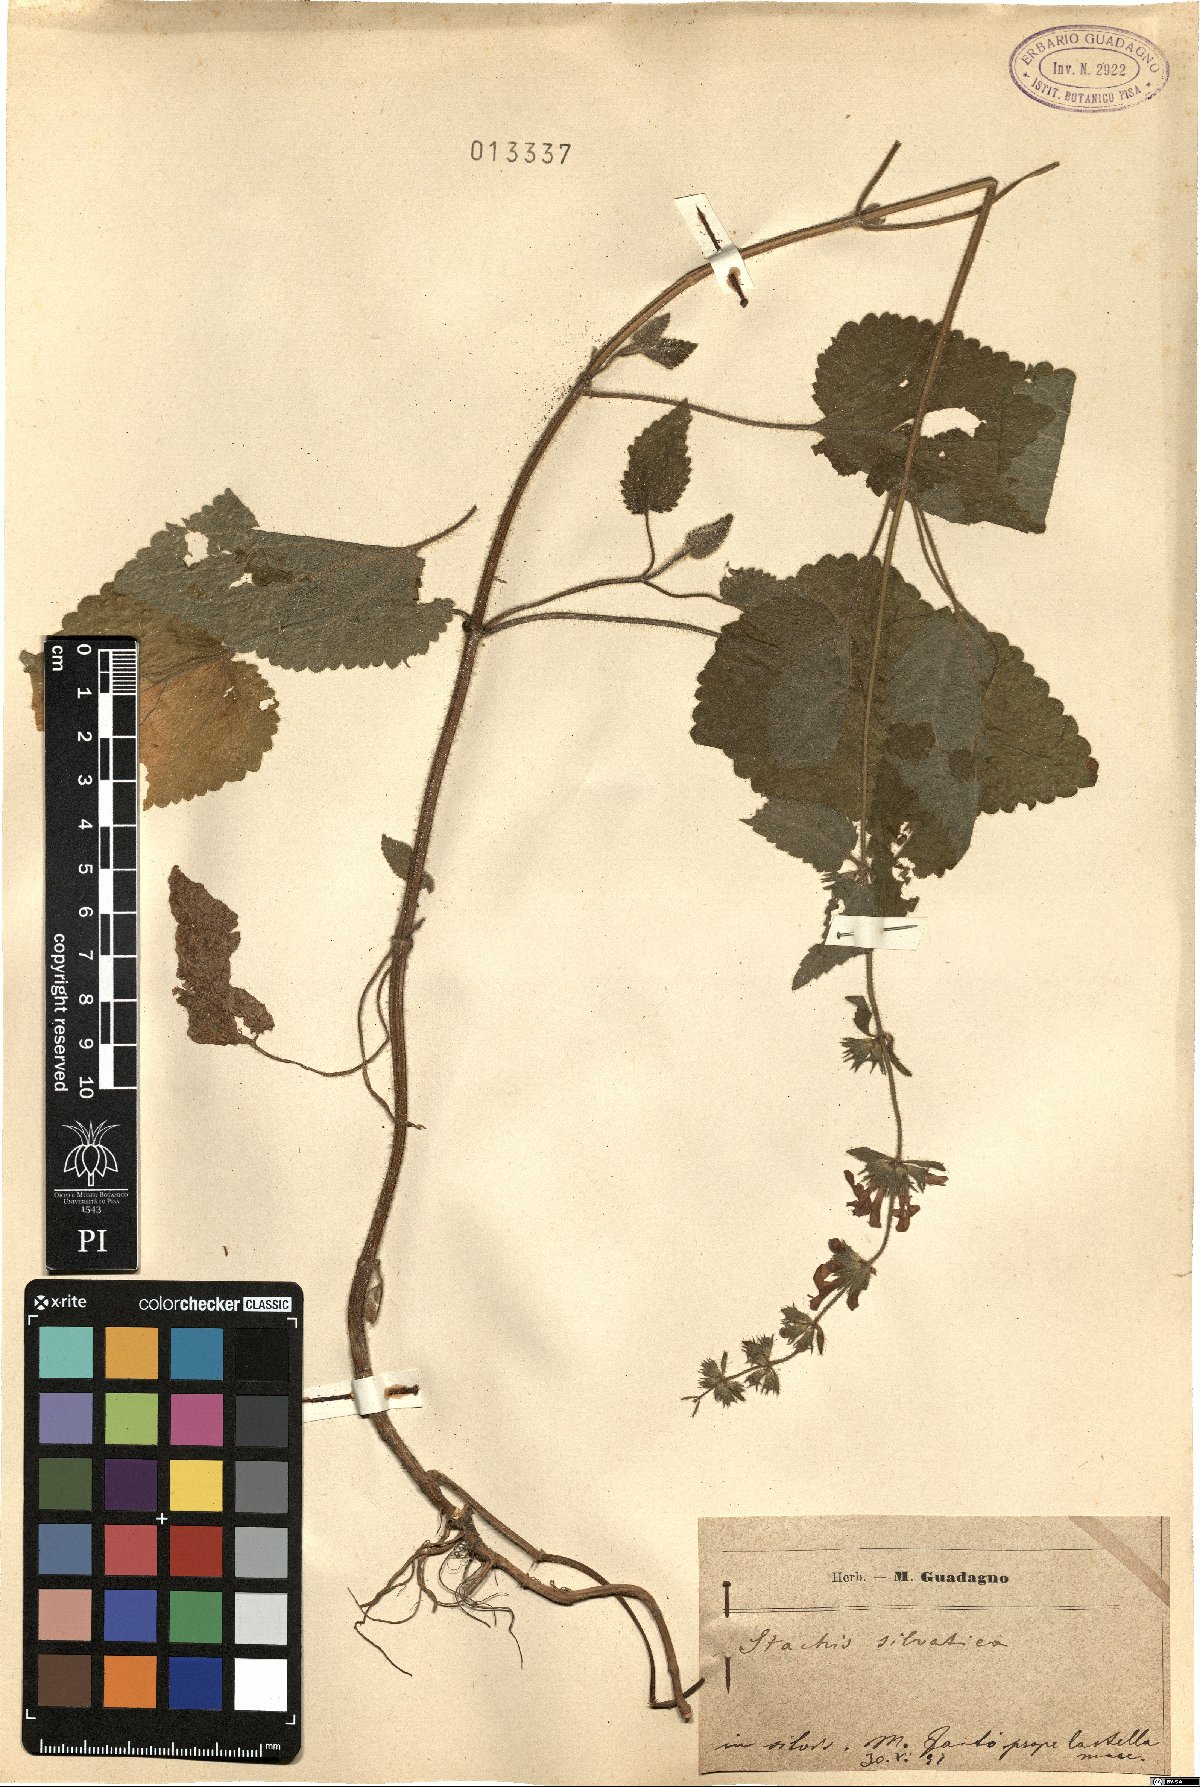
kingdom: Plantae
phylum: Tracheophyta
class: Magnoliopsida
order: Lamiales
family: Lamiaceae
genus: Stachys
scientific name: Stachys sylvatica
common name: Hedge woundwort
